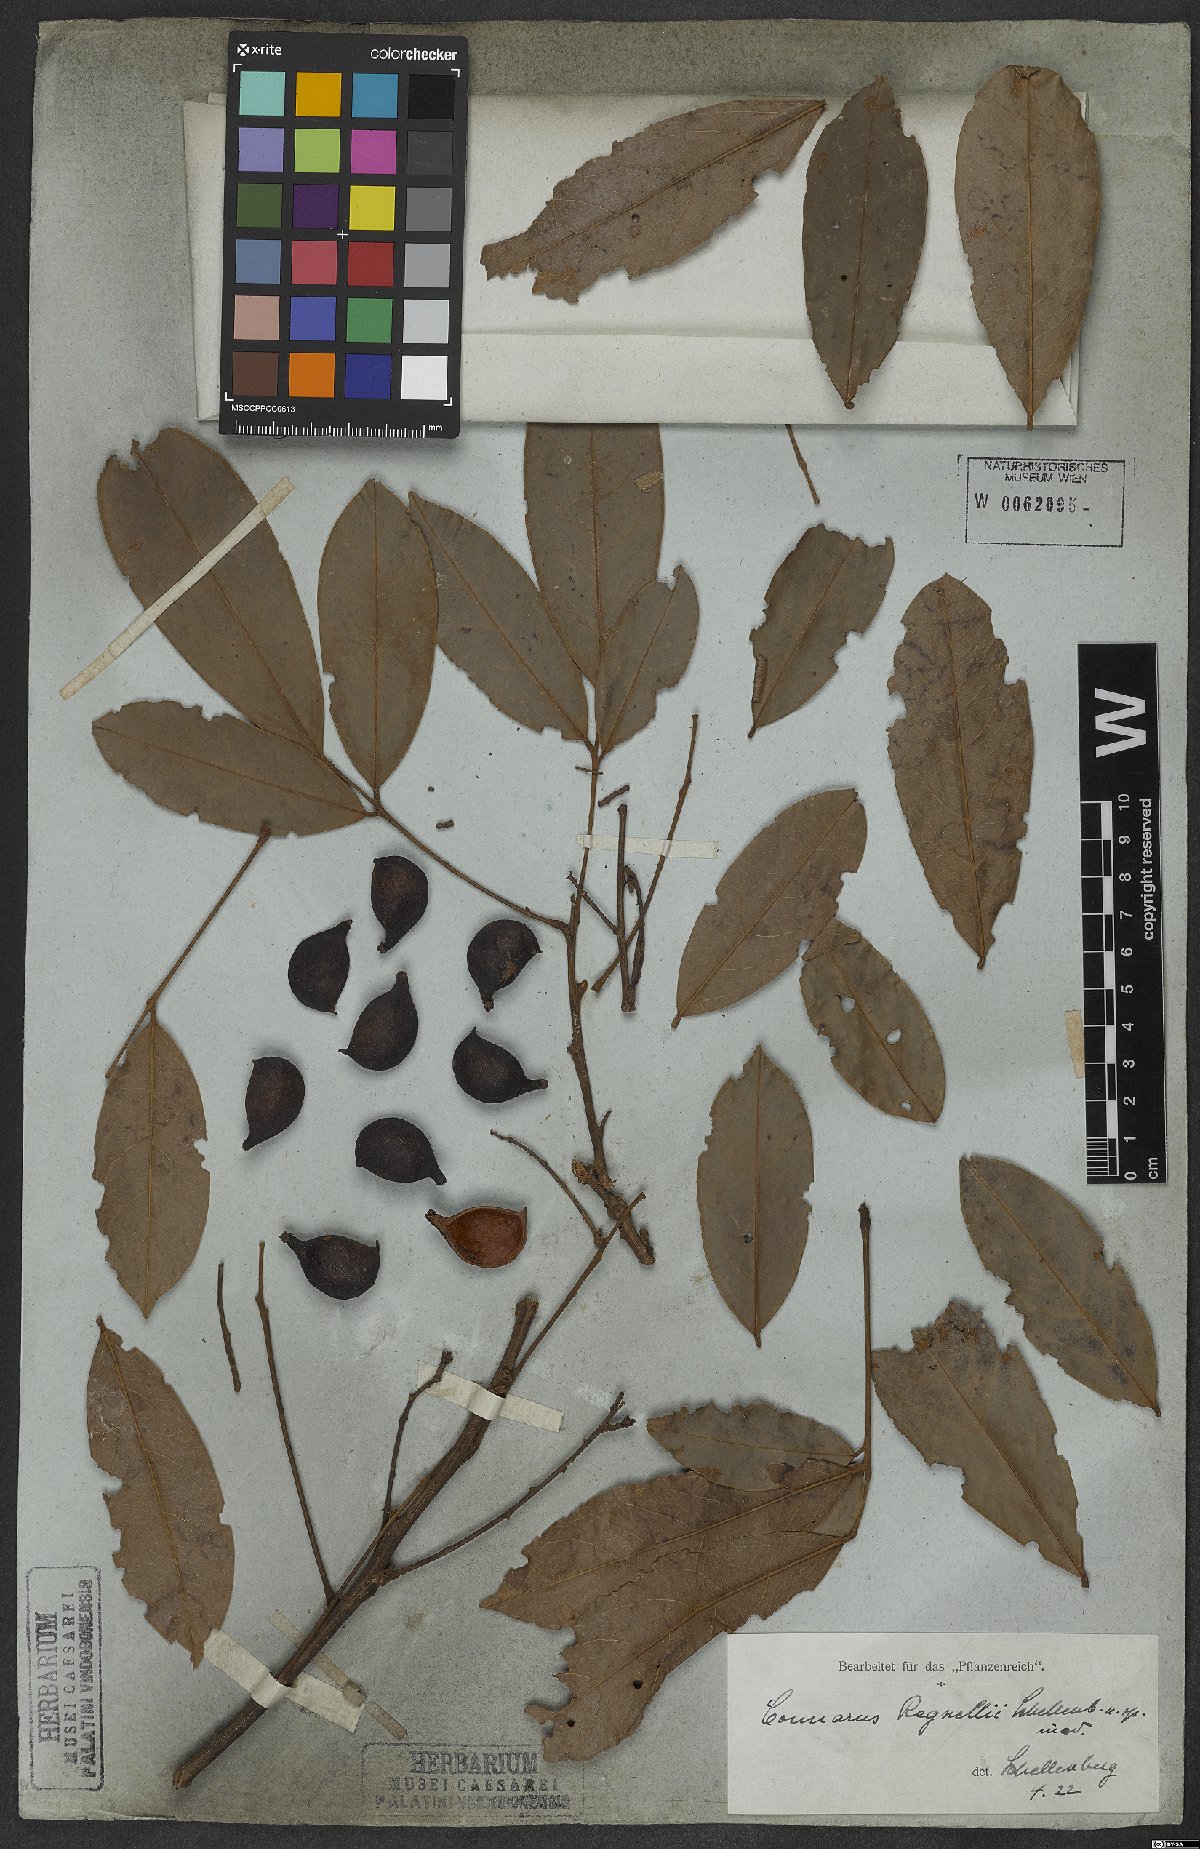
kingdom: Plantae
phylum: Tracheophyta
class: Magnoliopsida
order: Oxalidales
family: Connaraceae
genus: Connarus
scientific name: Connarus regnellii
